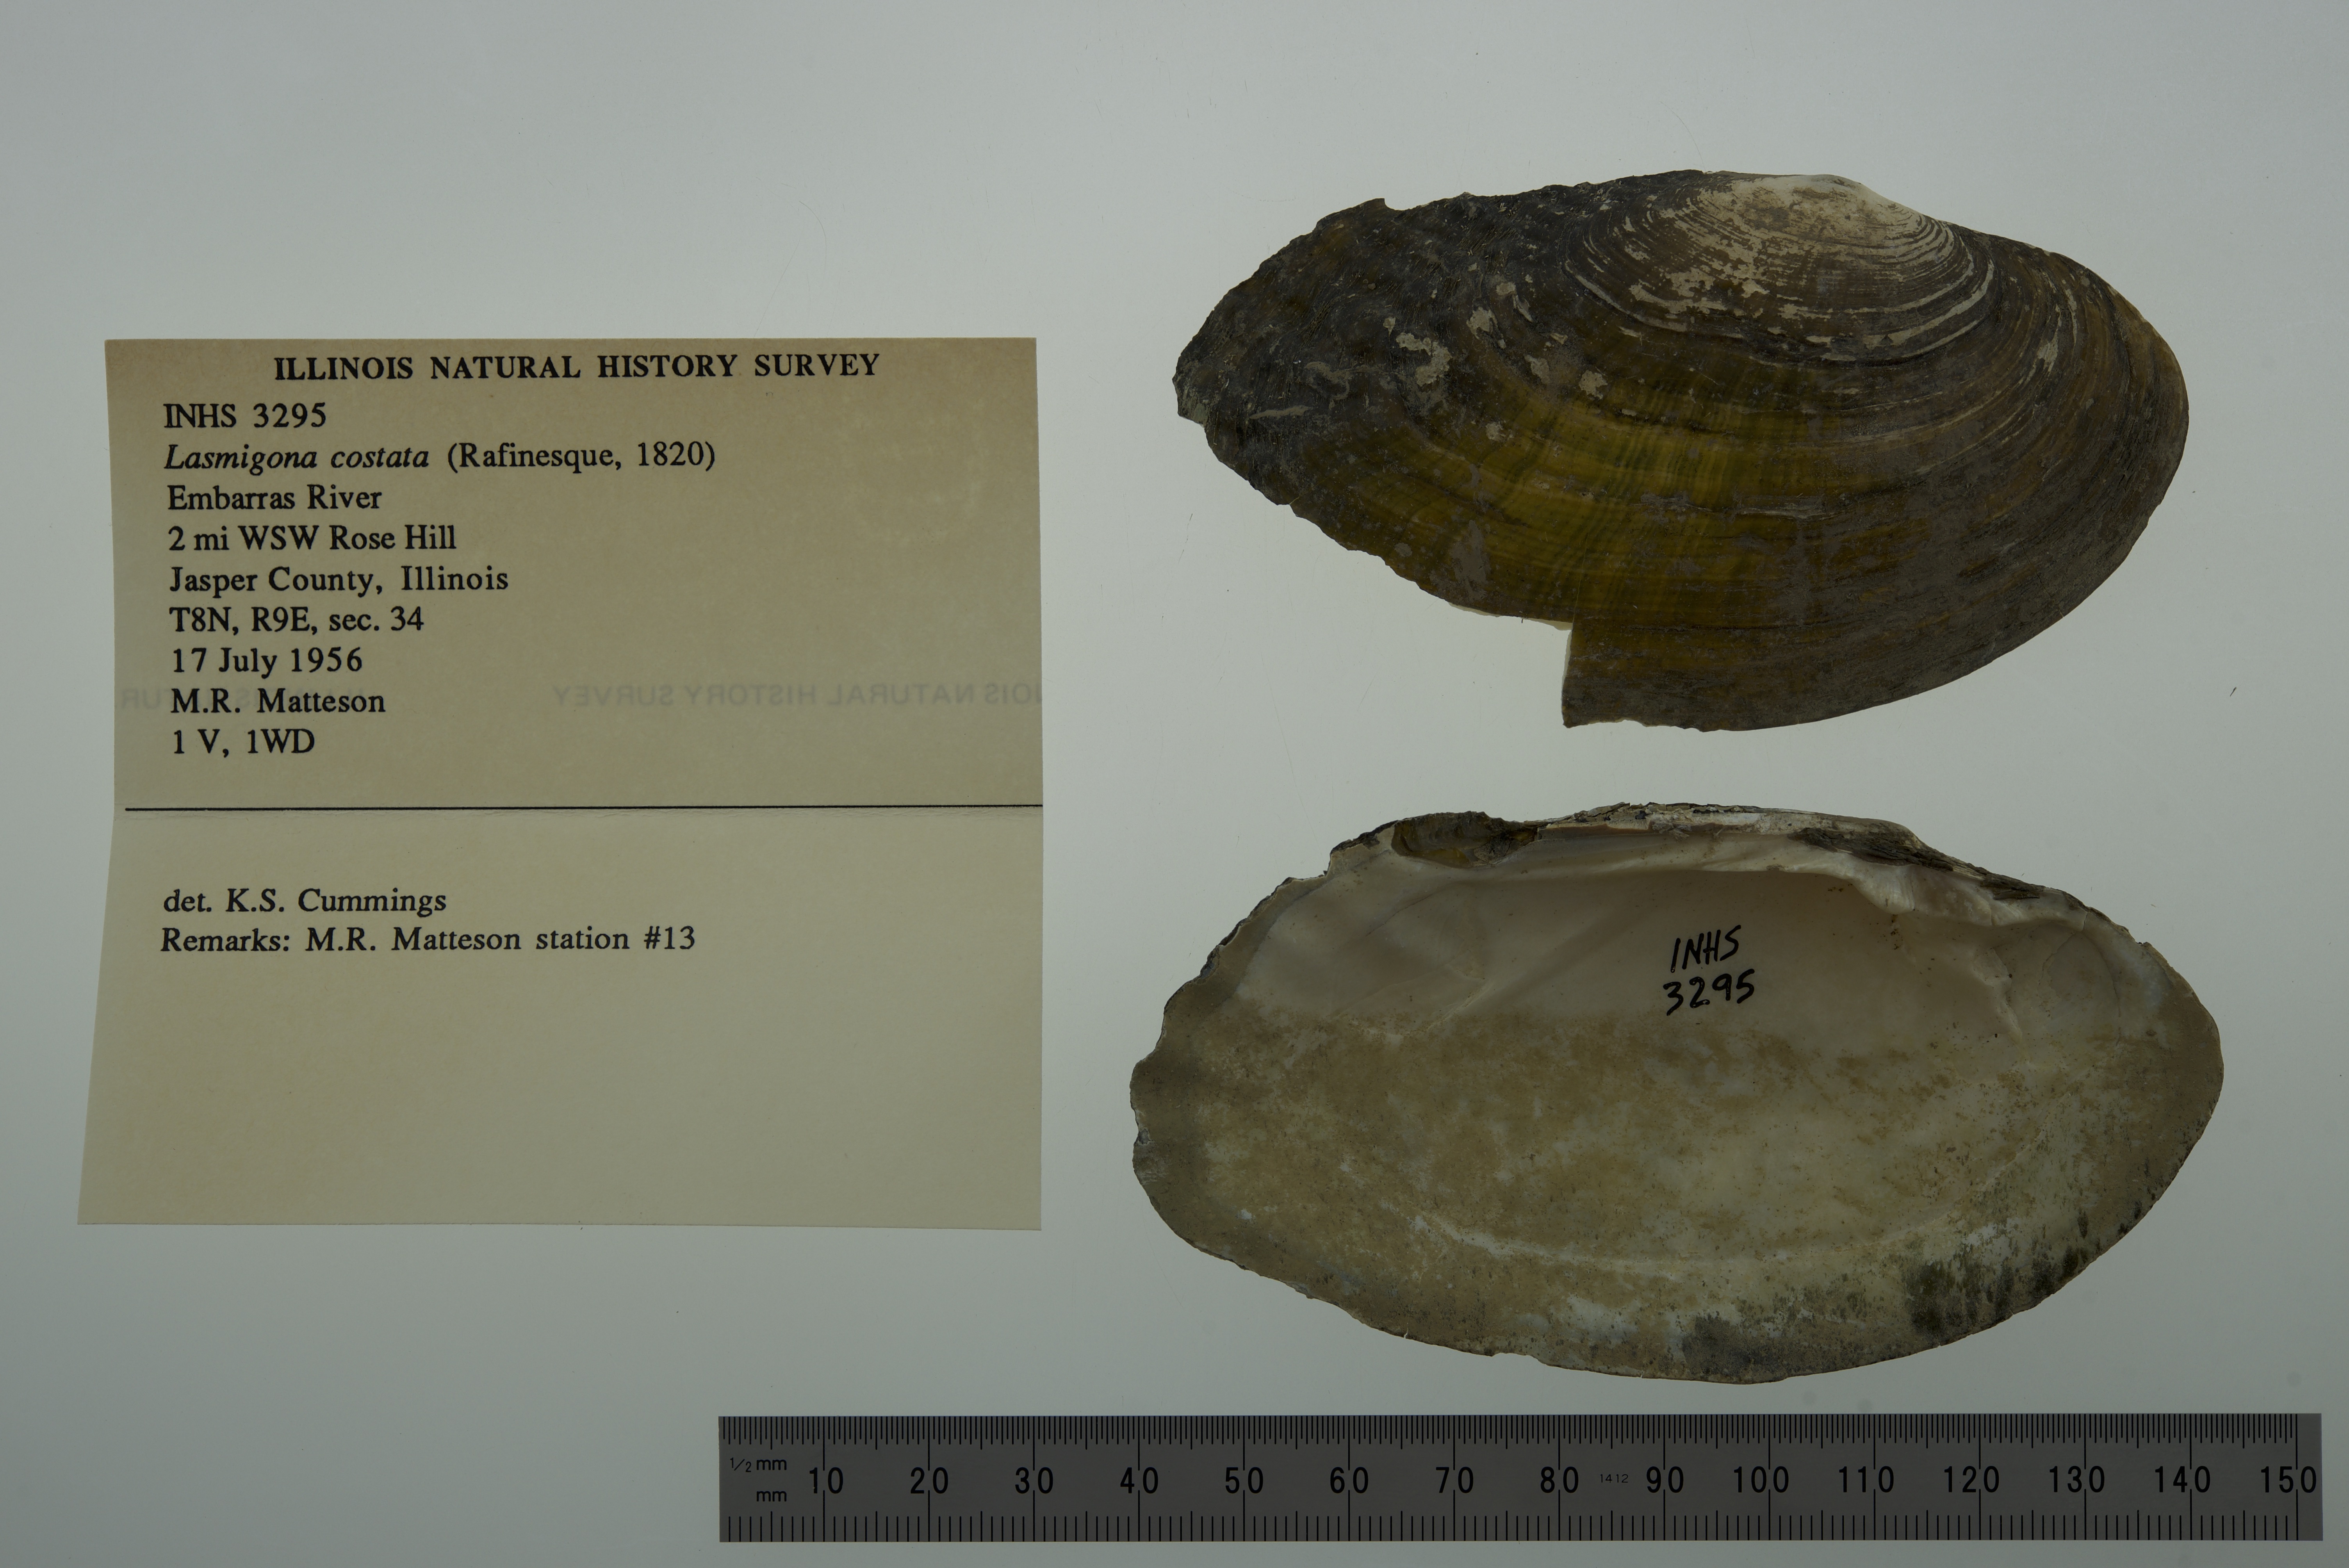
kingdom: Animalia
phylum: Mollusca
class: Bivalvia
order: Unionida
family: Unionidae
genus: Lasmigona
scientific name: Lasmigona costata
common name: Flutedshell
